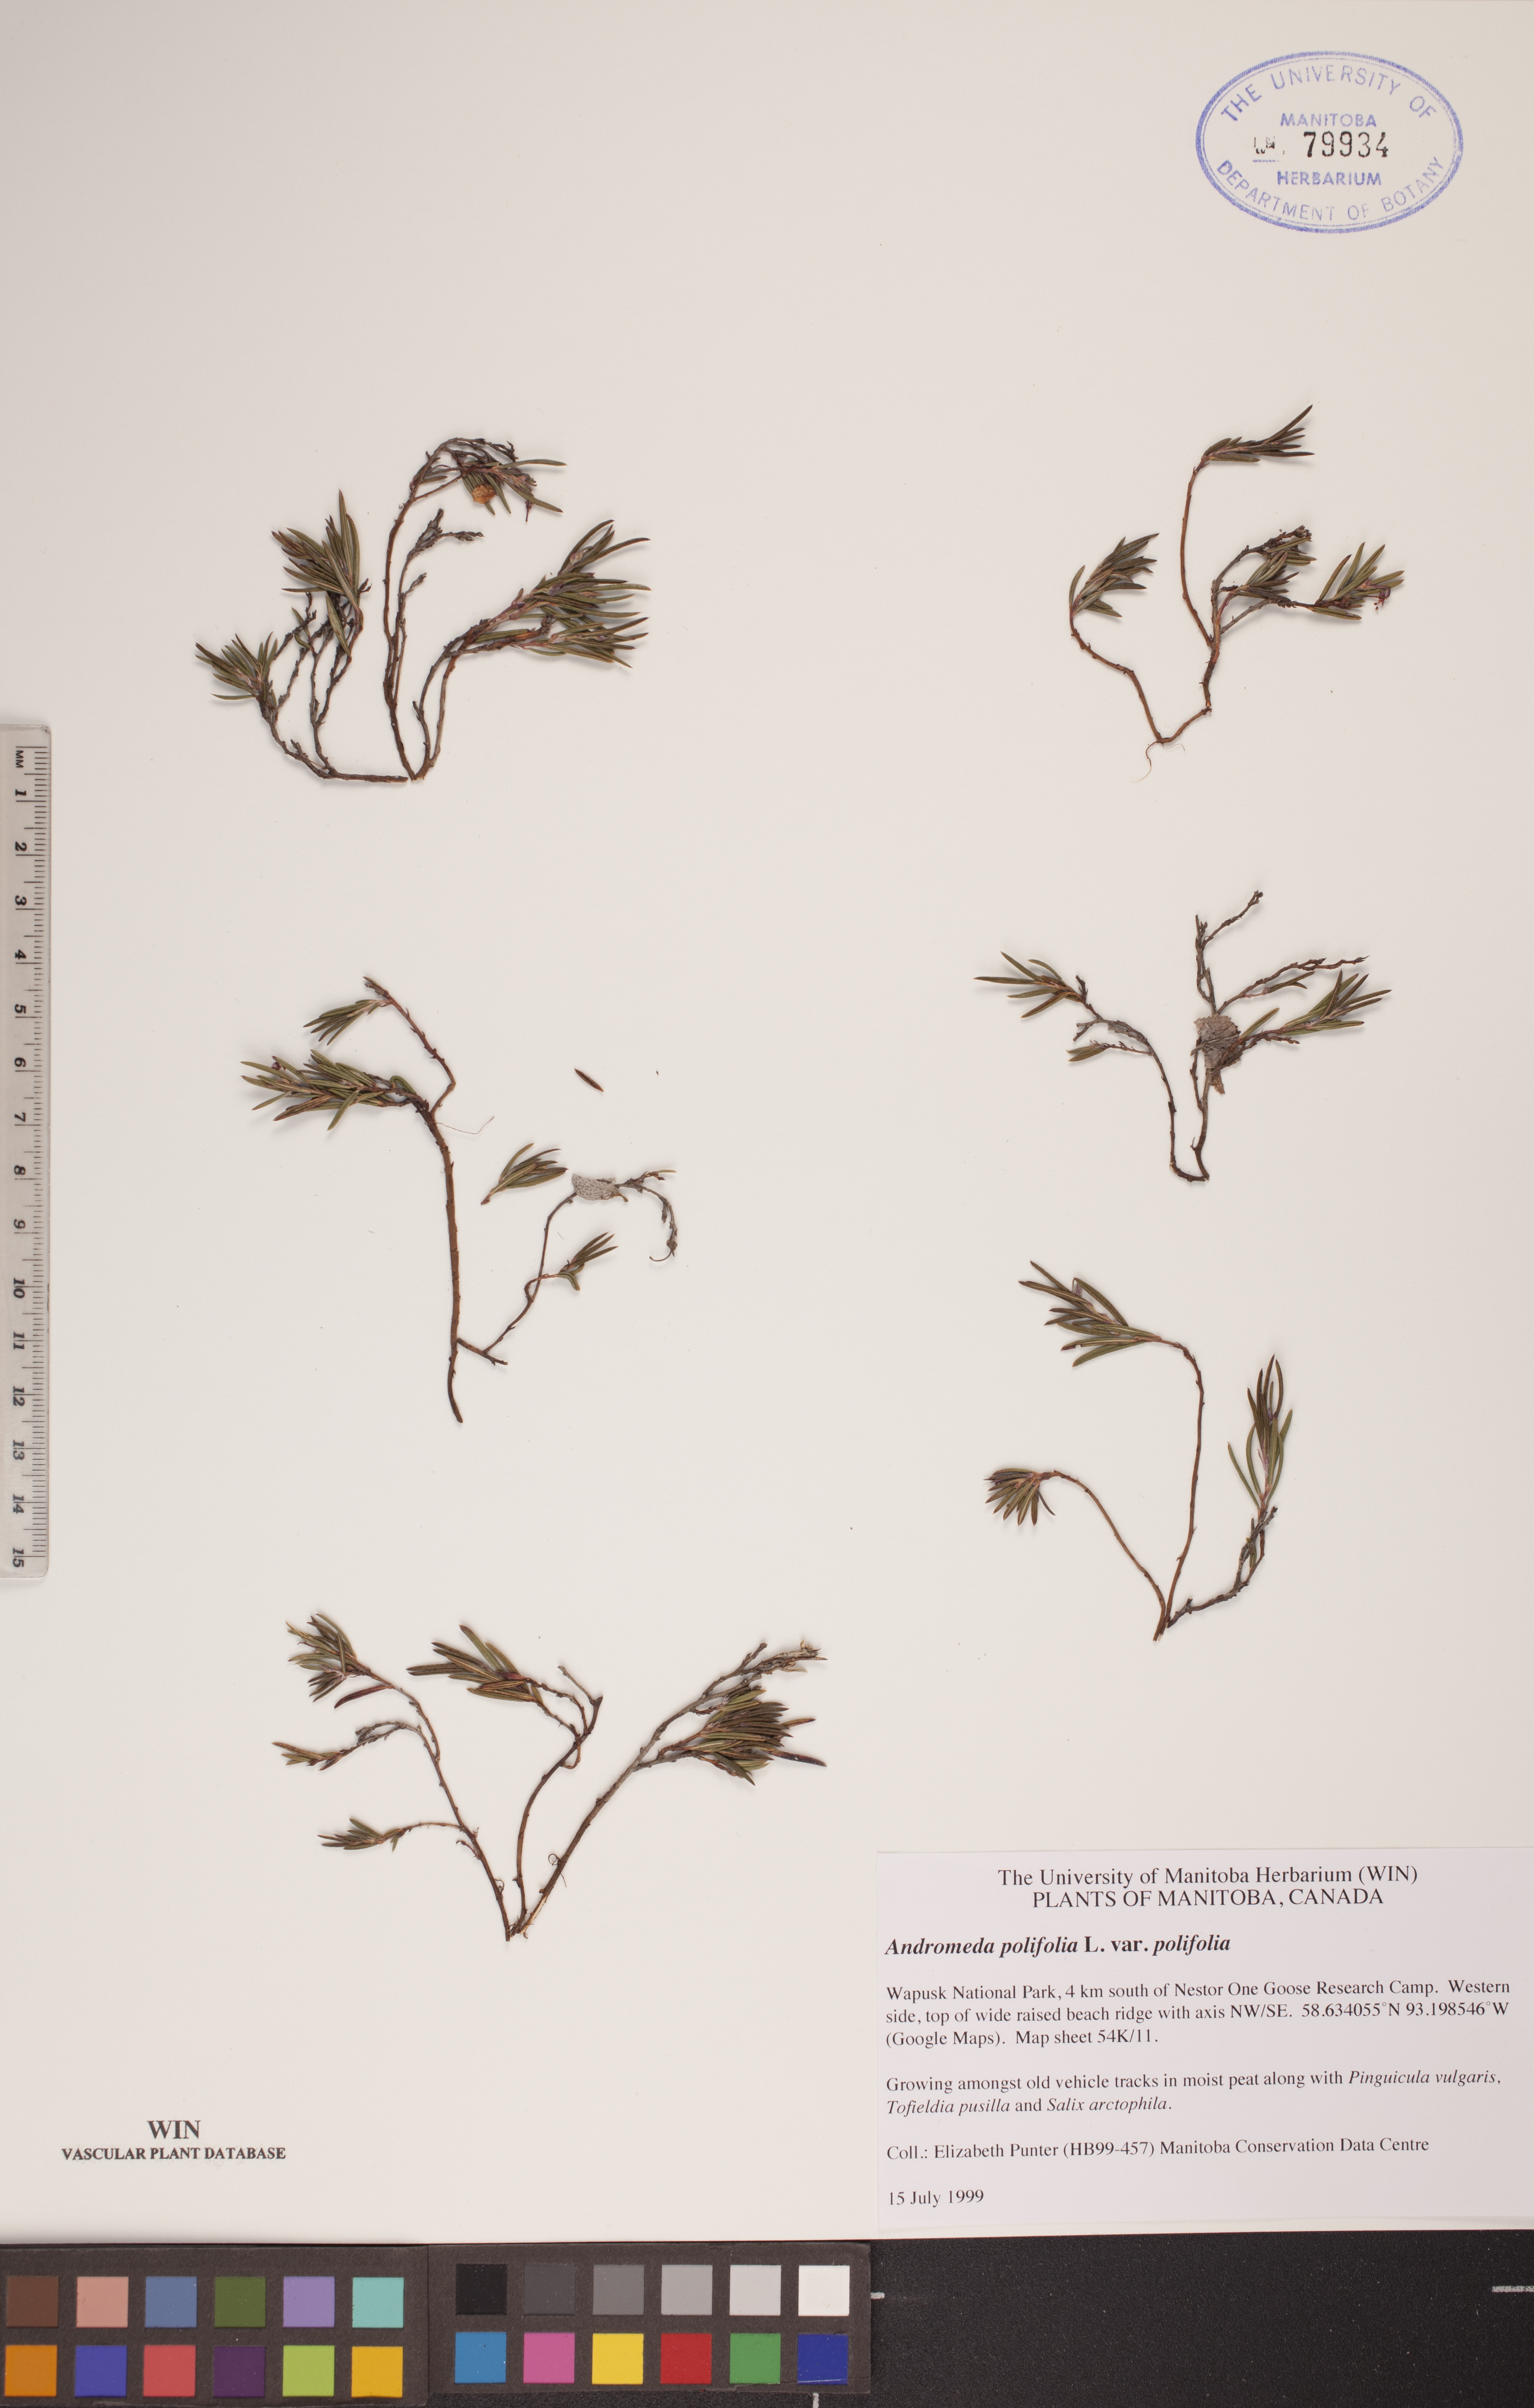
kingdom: Plantae
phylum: Tracheophyta
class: Magnoliopsida
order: Ericales
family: Ericaceae
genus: Andromeda
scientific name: Andromeda polifolia
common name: Bog-rosemary
